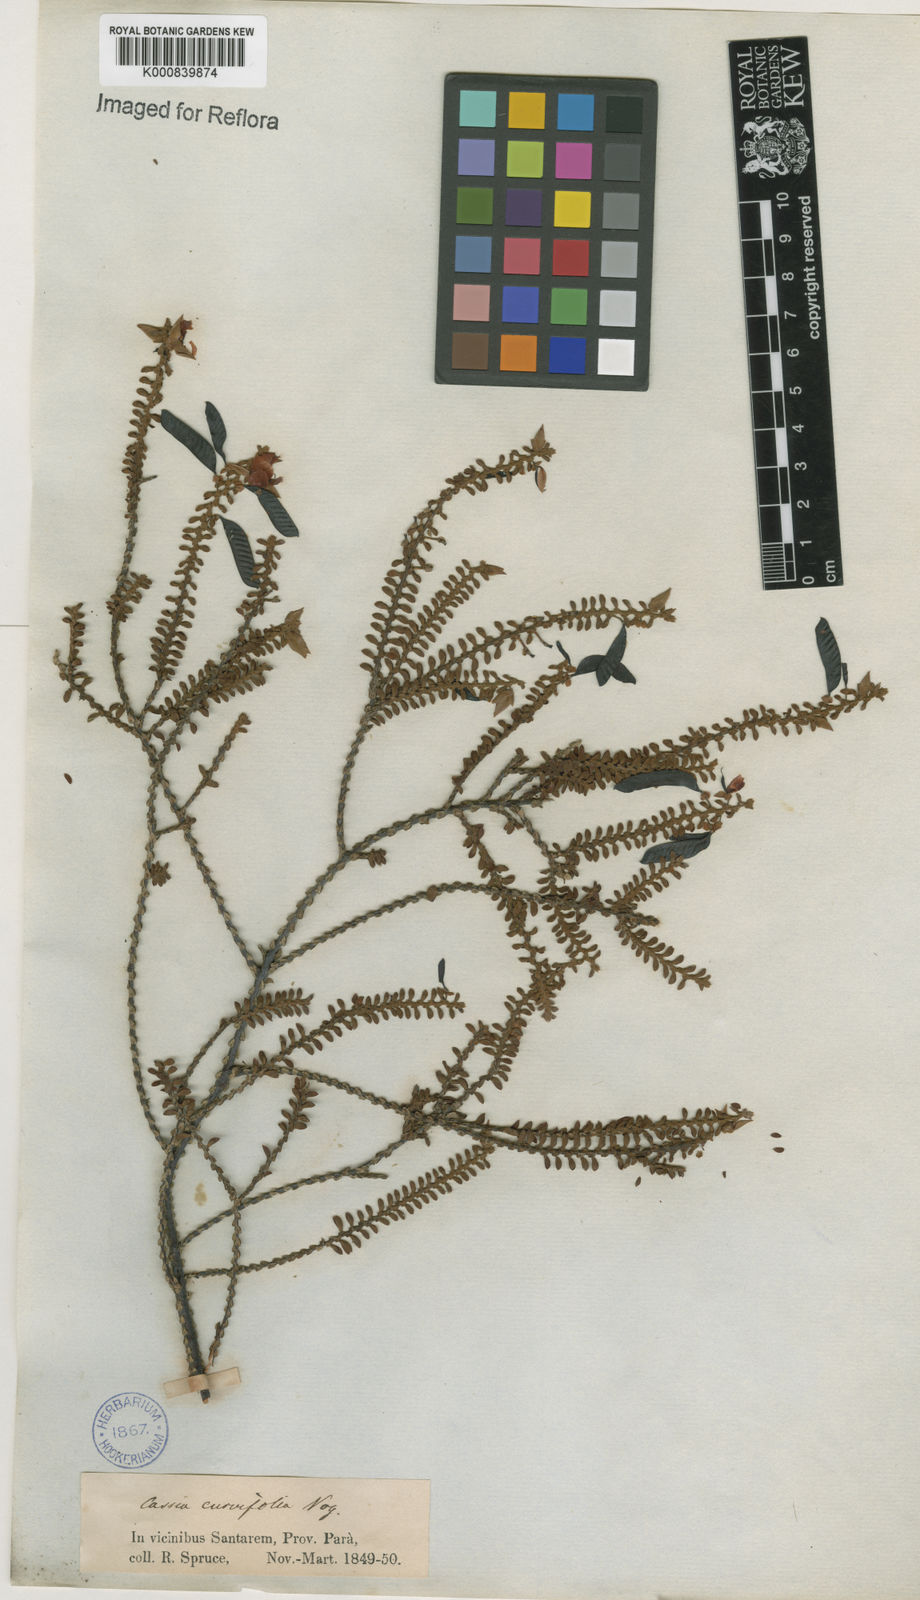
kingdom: Plantae
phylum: Tracheophyta
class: Magnoliopsida
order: Fabales
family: Fabaceae
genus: Chamaecrista
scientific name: Chamaecrista ramosa
